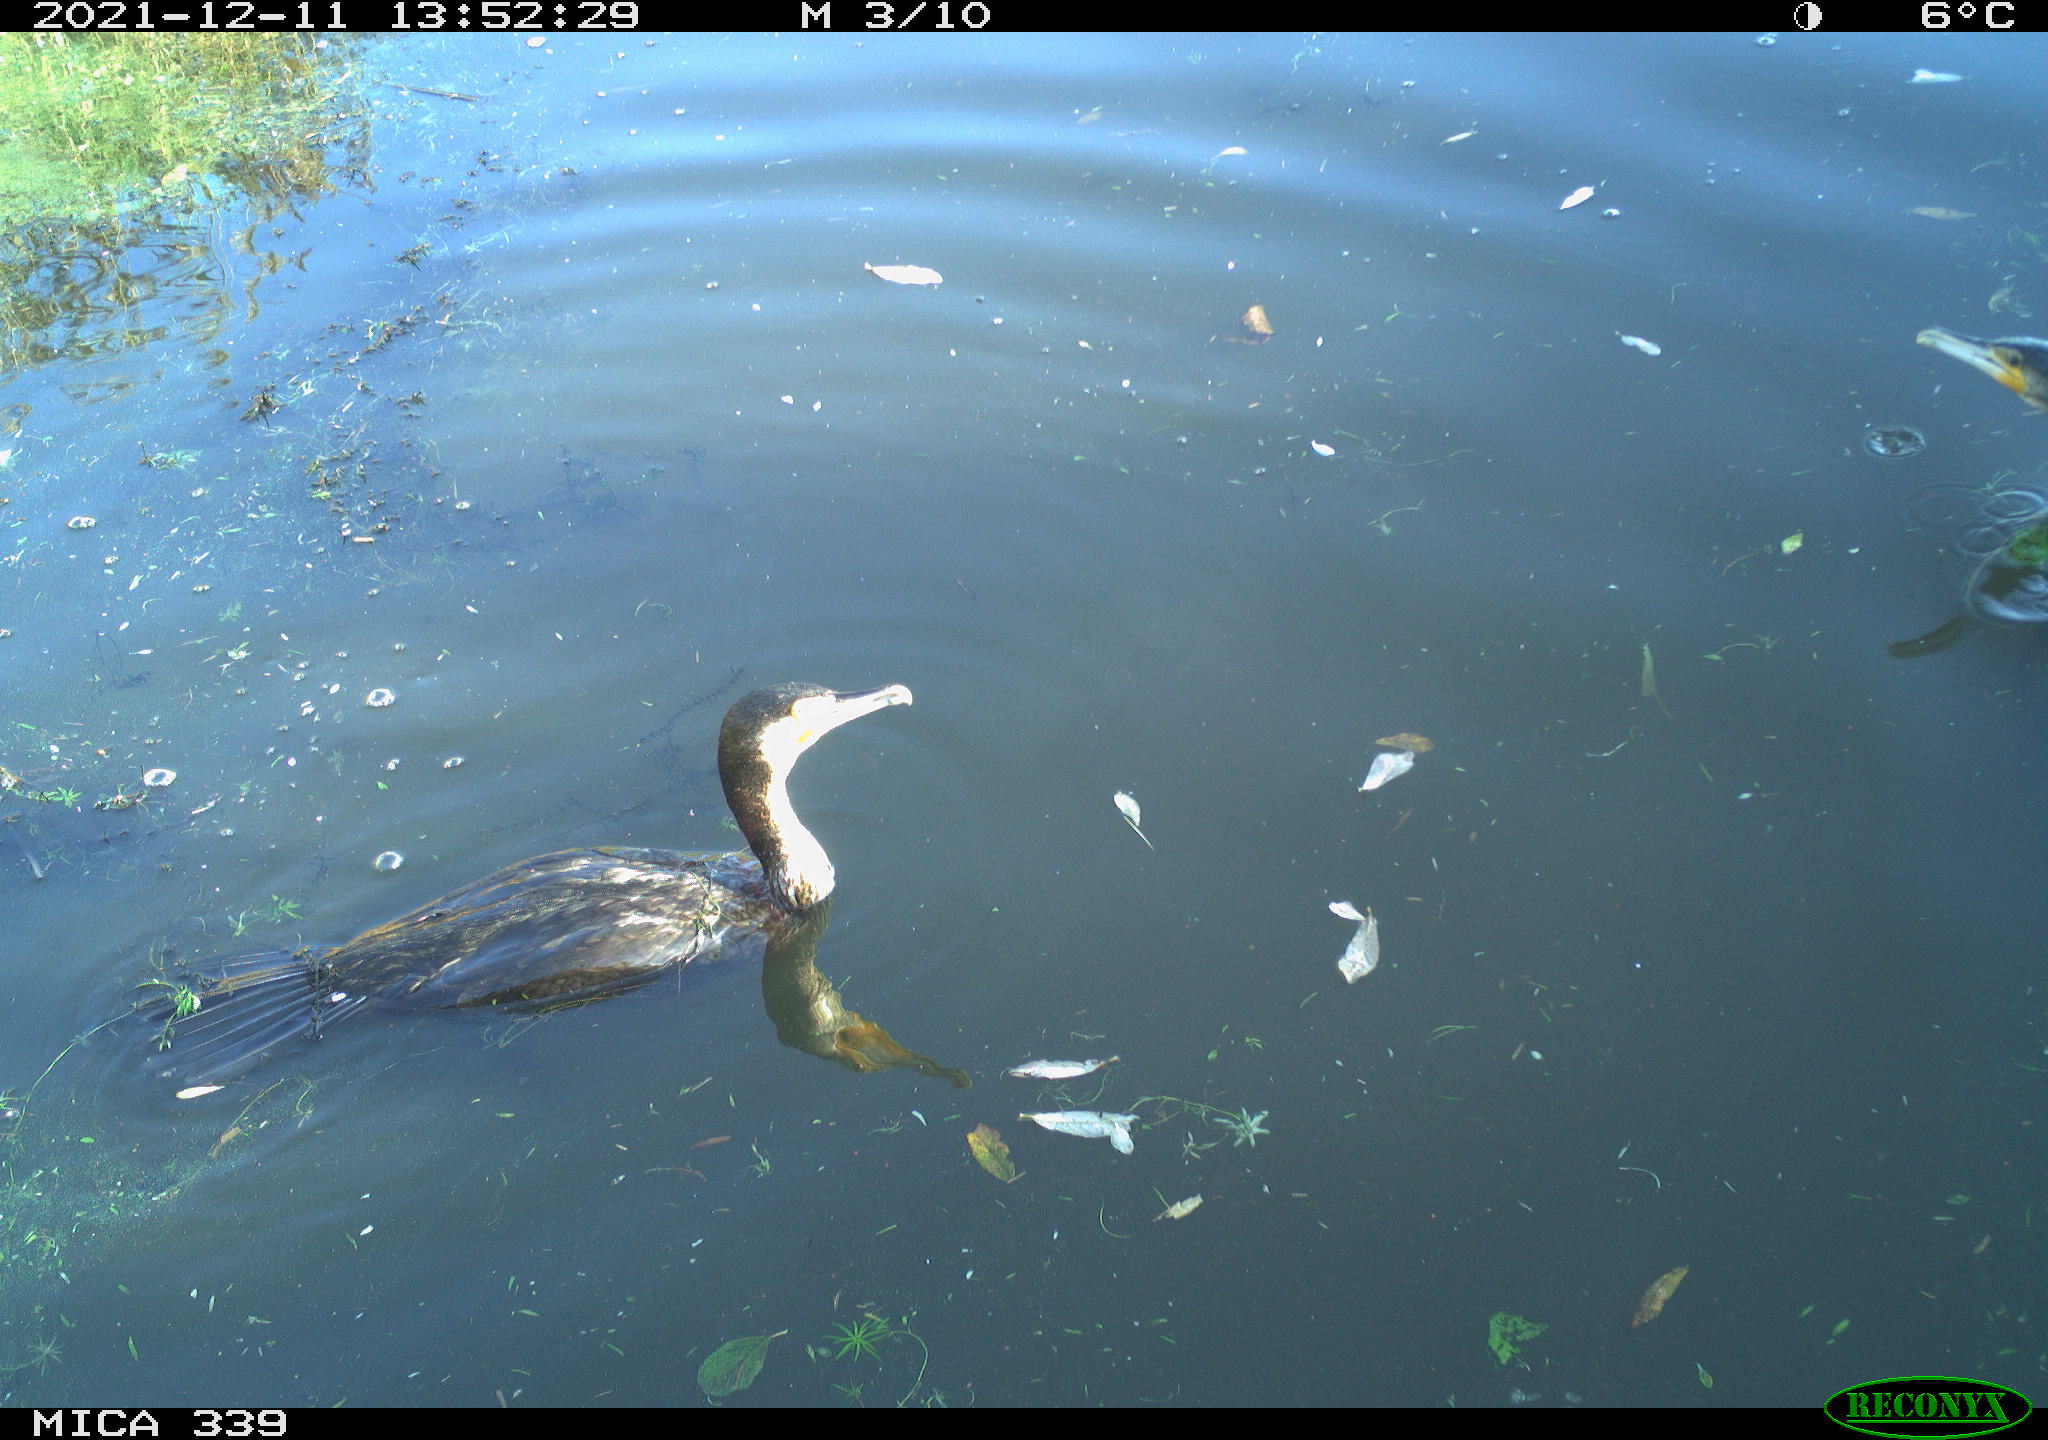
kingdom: Animalia
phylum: Chordata
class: Aves
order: Suliformes
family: Phalacrocoracidae
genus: Phalacrocorax
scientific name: Phalacrocorax carbo
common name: Great cormorant
